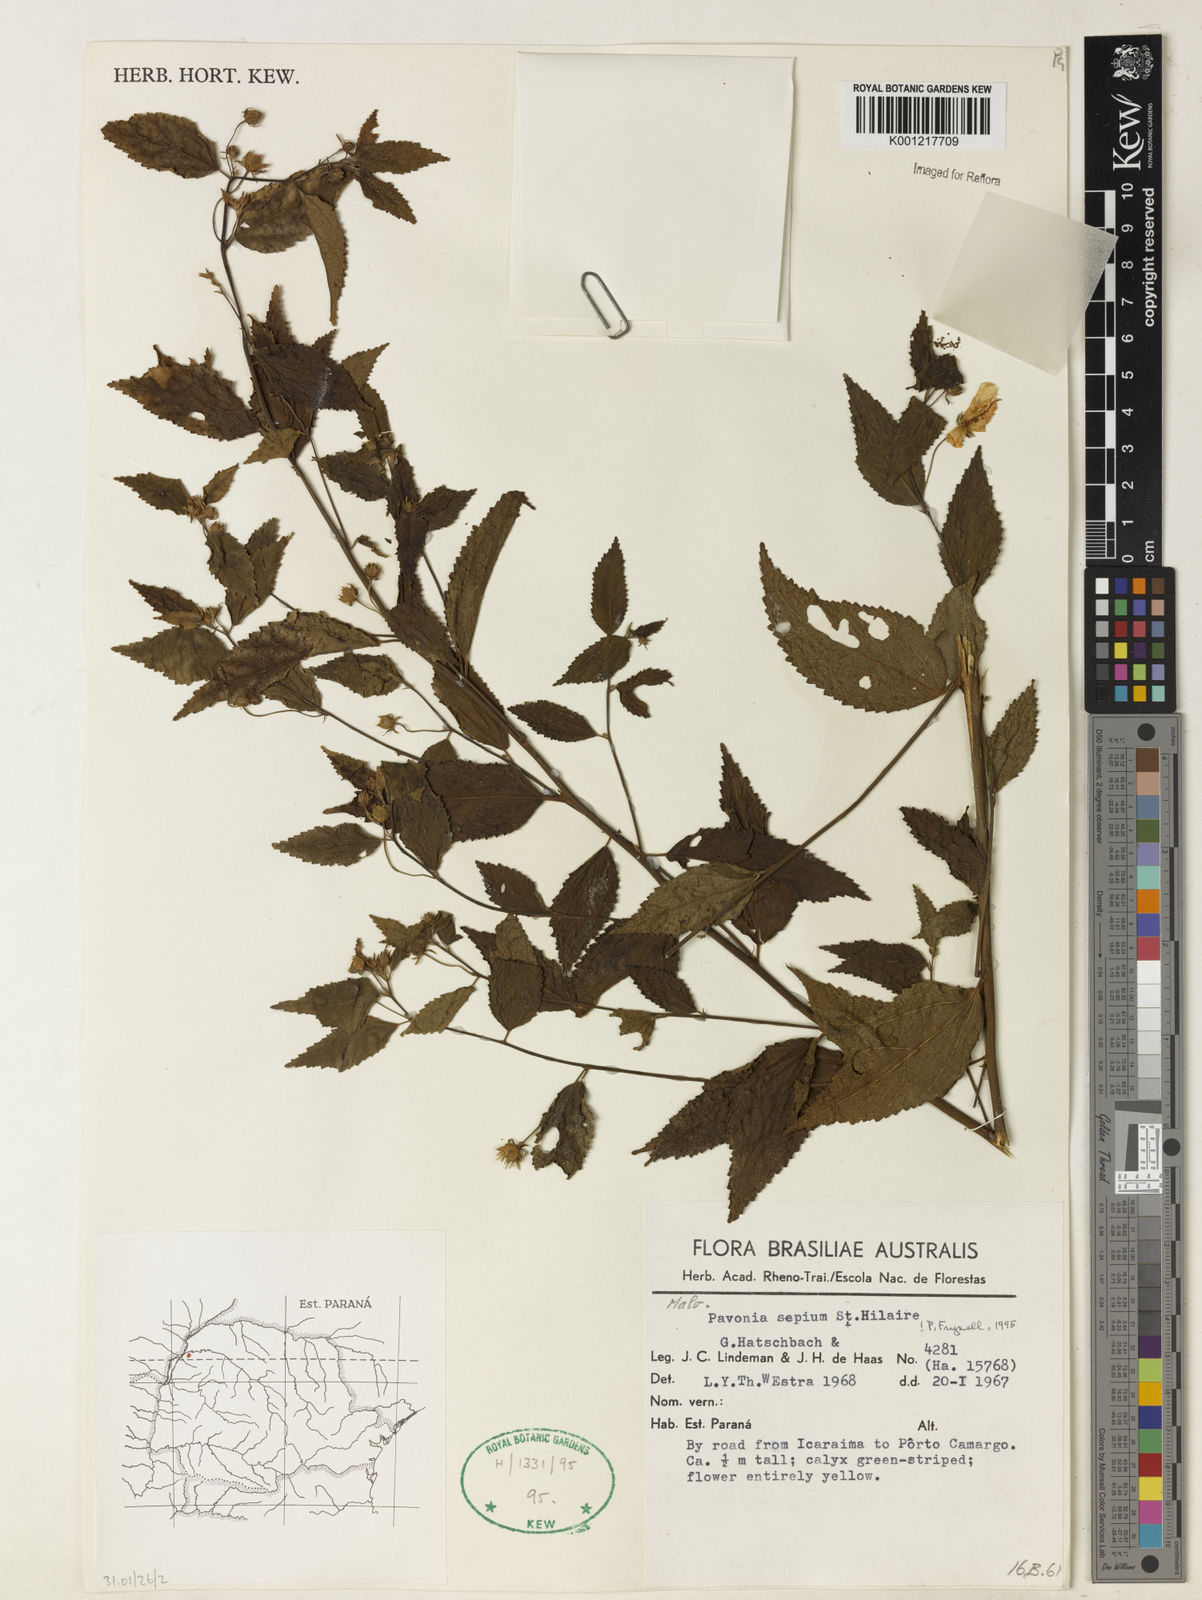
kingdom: Plantae
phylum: Tracheophyta
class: Magnoliopsida
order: Malvales
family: Malvaceae
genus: Pavonia
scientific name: Pavonia sepium
